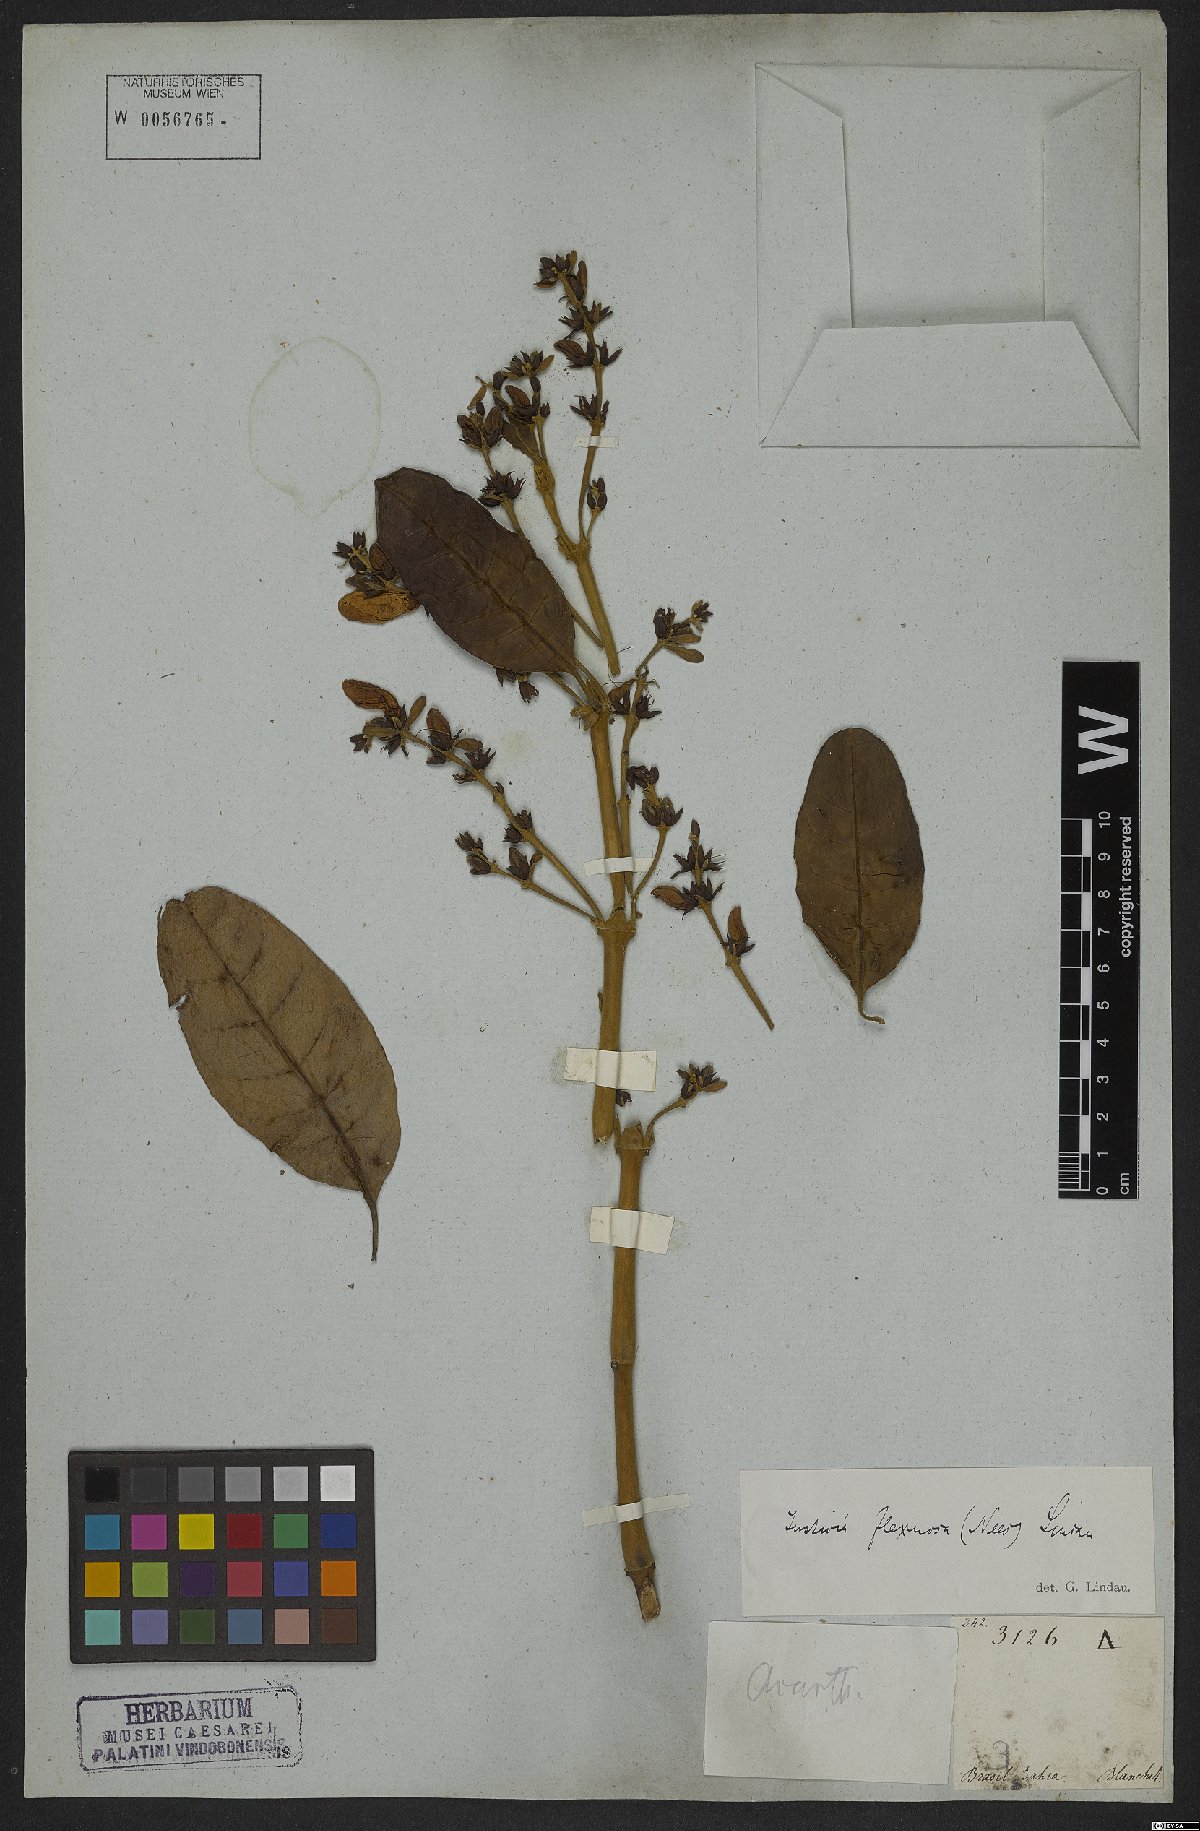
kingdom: Plantae
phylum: Tracheophyta
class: Magnoliopsida
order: Lamiales
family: Acanthaceae
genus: Poikilacanthus
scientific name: Poikilacanthus glandulosus
